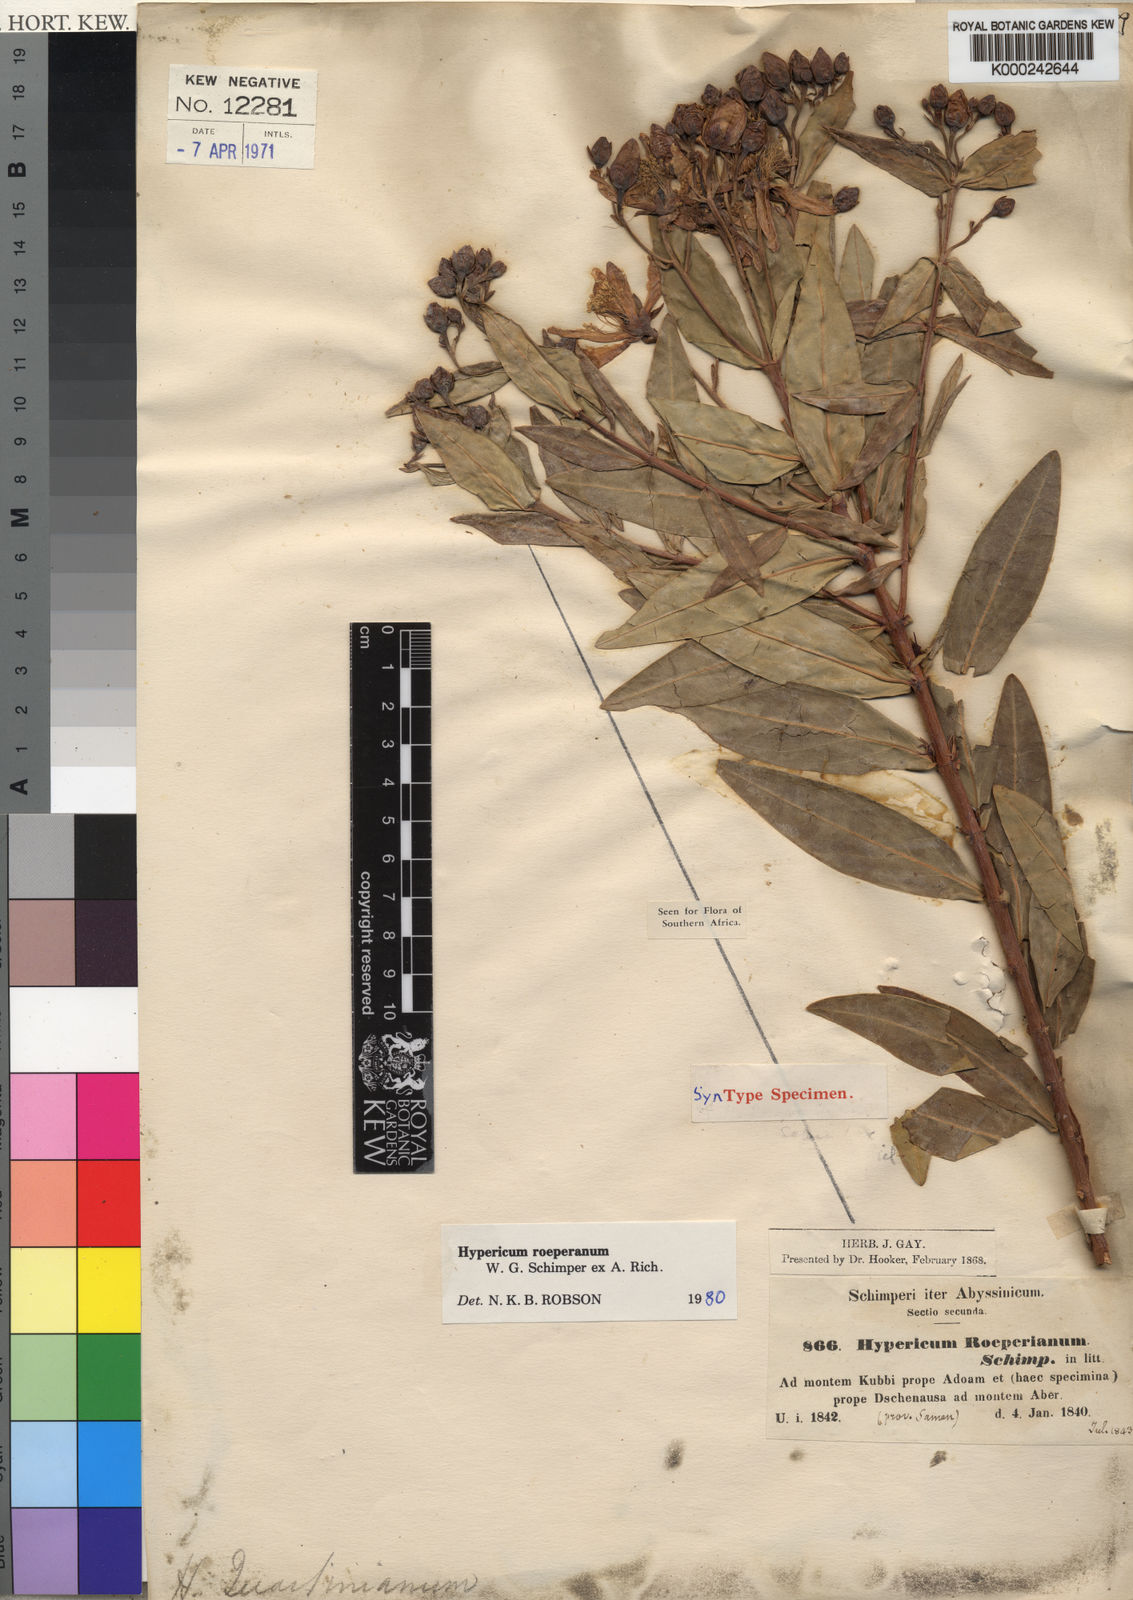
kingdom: Plantae
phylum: Tracheophyta
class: Magnoliopsida
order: Malpighiales
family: Hypericaceae
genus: Hypericum
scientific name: Hypericum
